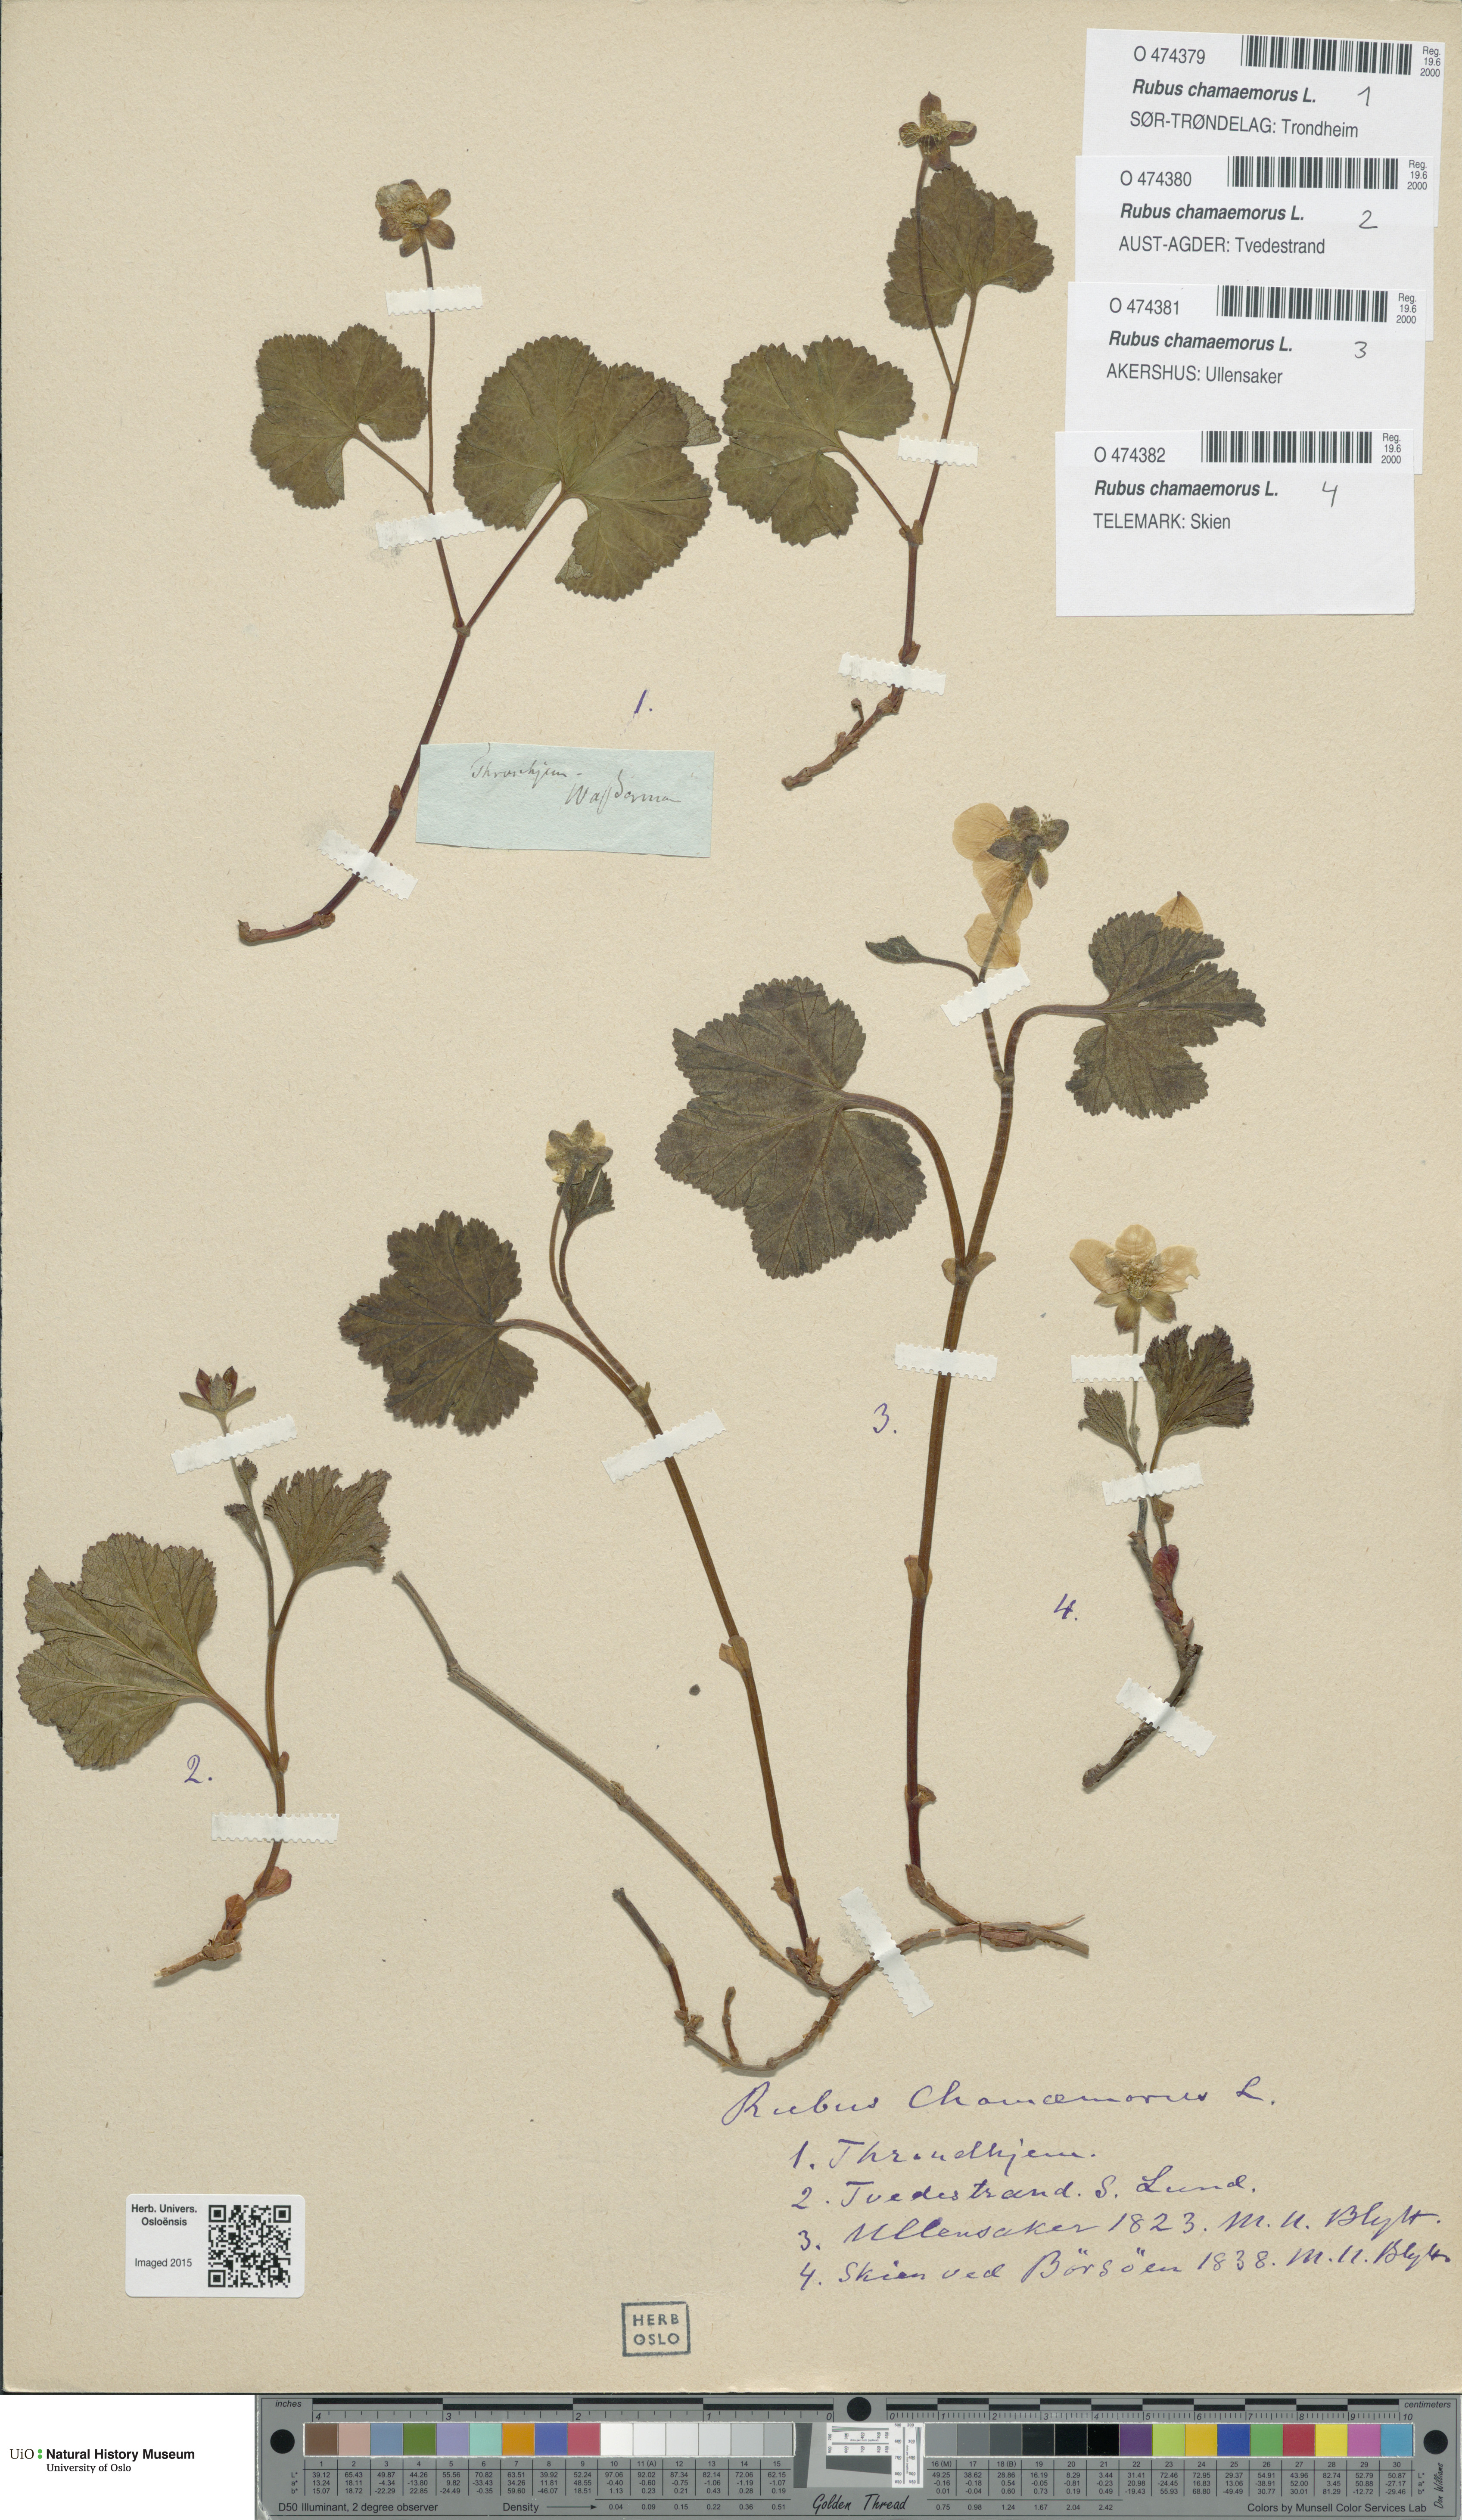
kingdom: Plantae
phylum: Tracheophyta
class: Magnoliopsida
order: Rosales
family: Rosaceae
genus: Rubus
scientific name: Rubus chamaemorus
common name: Cloudberry
